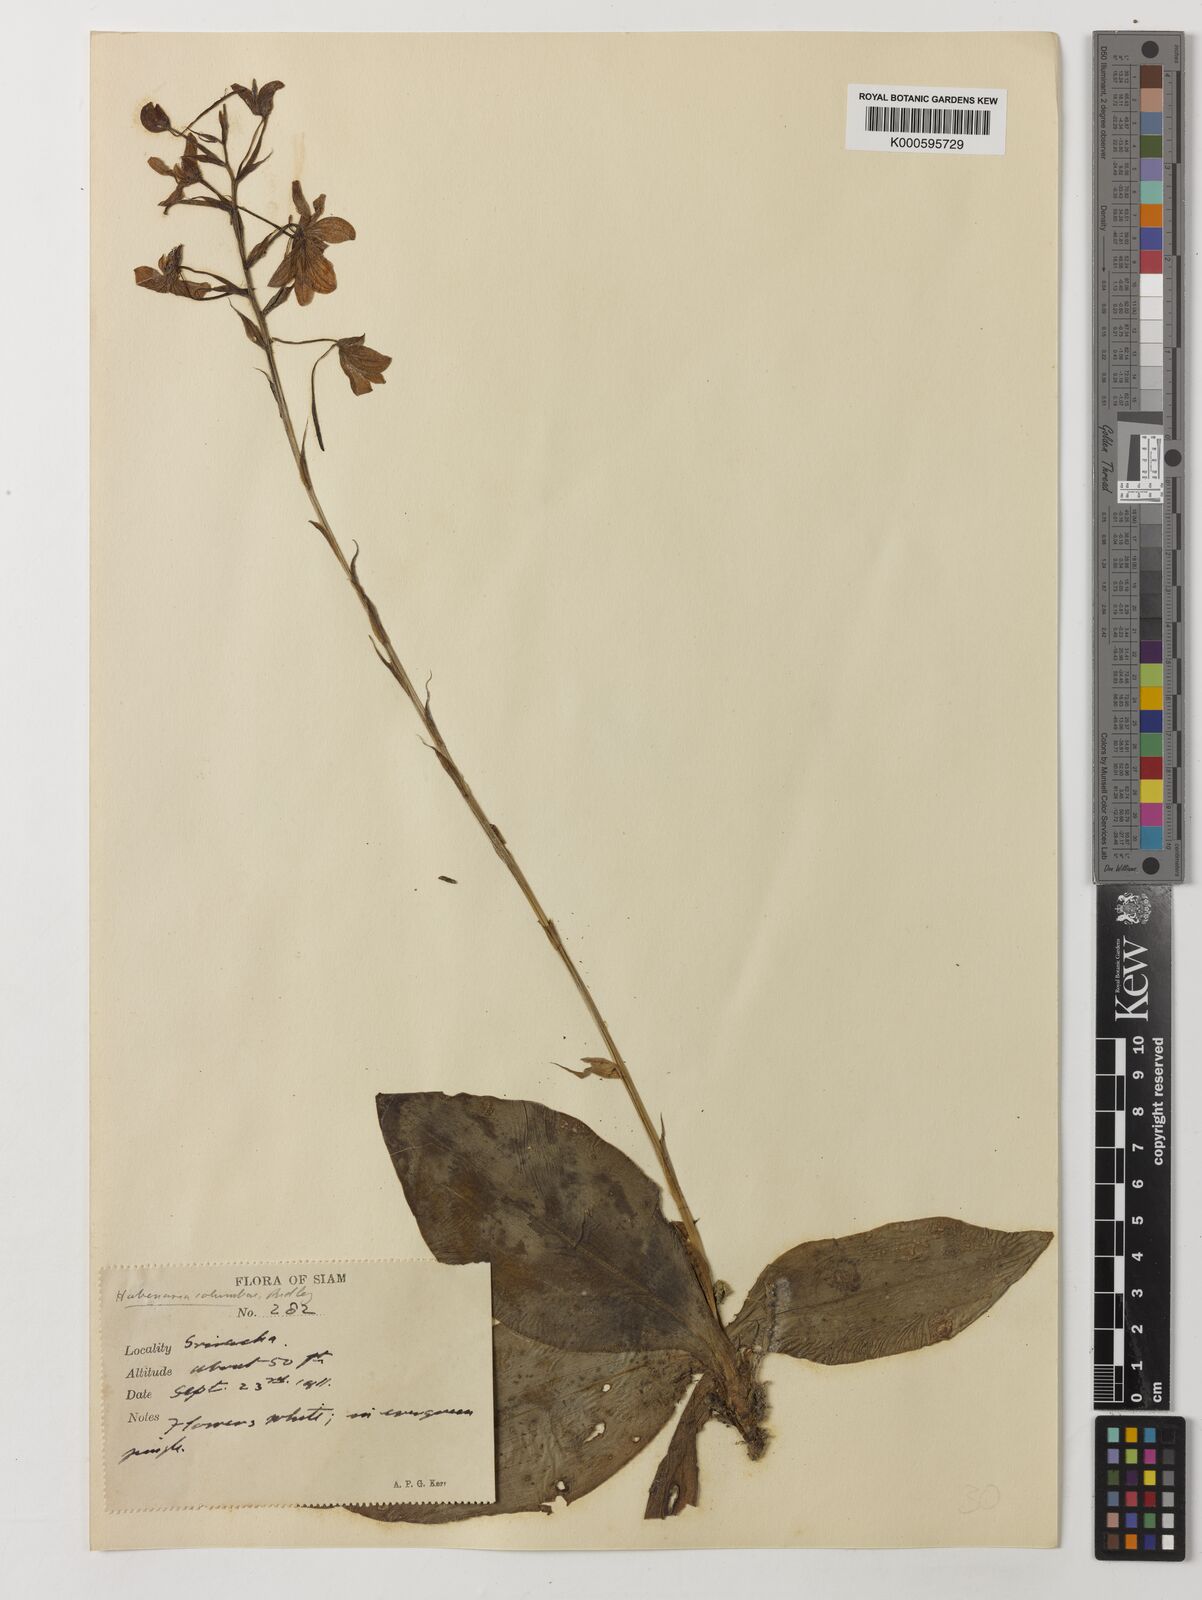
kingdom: Plantae
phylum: Tracheophyta
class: Liliopsida
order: Asparagales
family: Orchidaceae
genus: Habenaria
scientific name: Habenaria lindleyana
